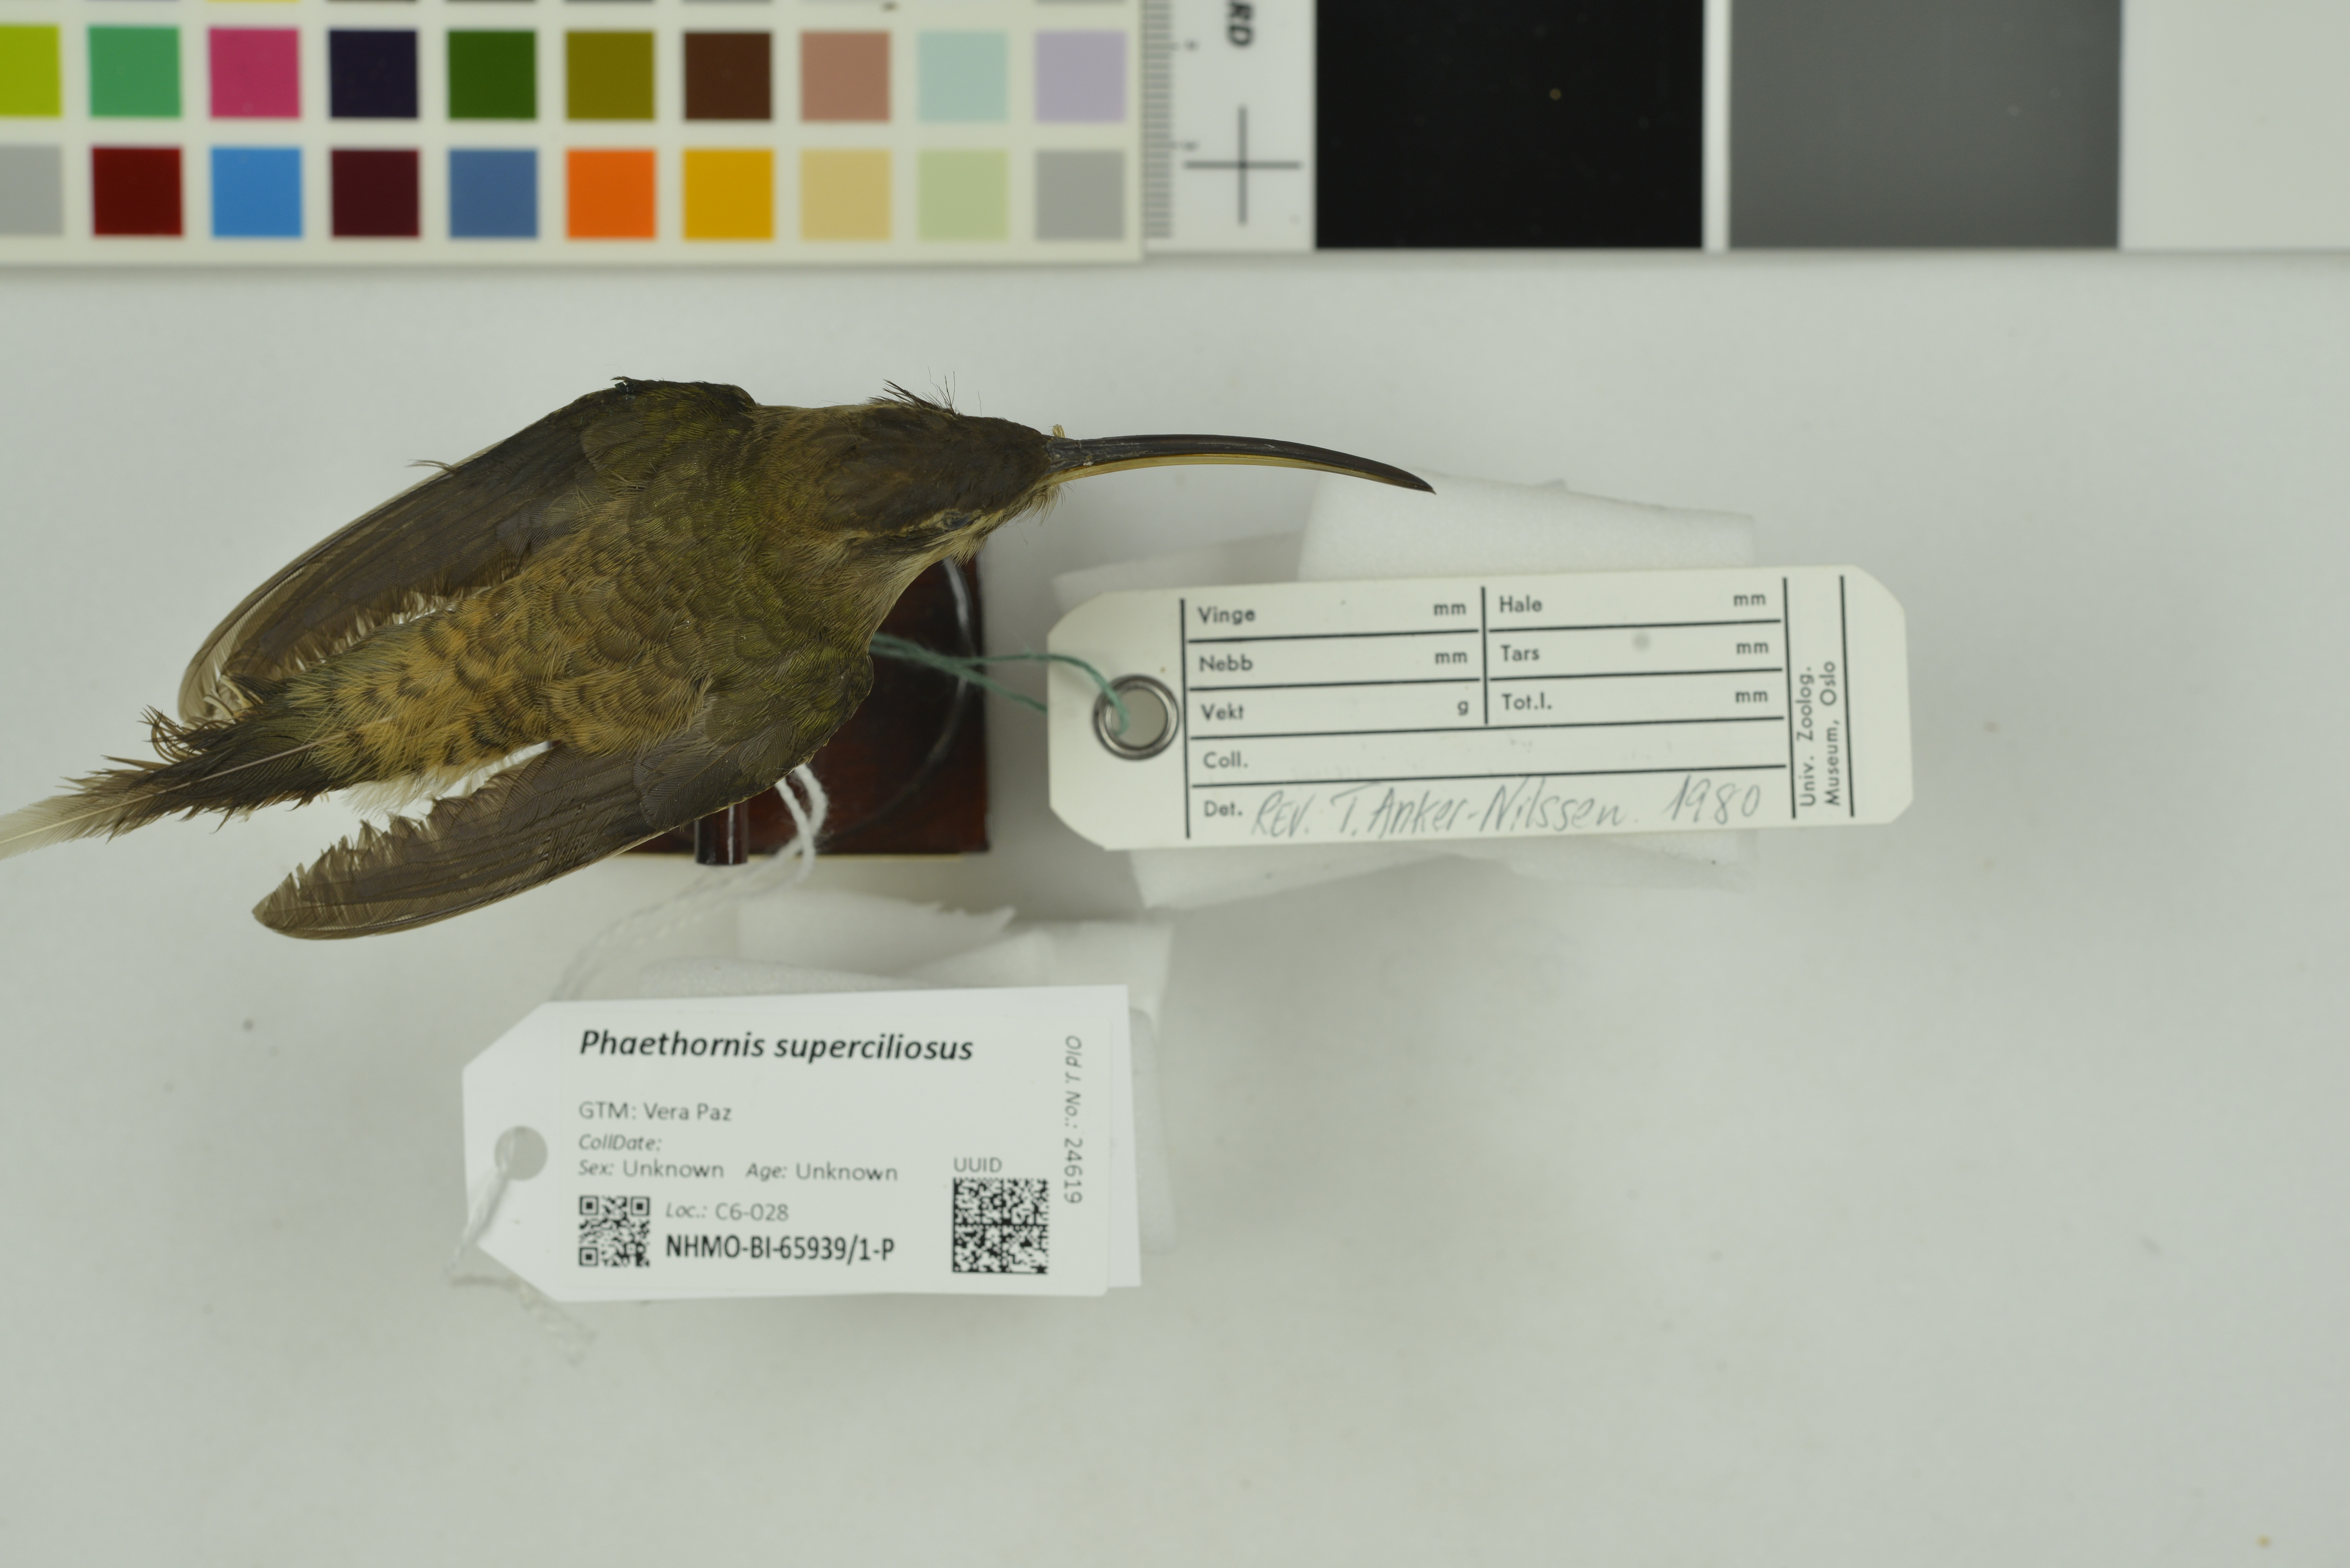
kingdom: Animalia
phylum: Chordata
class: Aves
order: Apodiformes
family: Trochilidae
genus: Phaethornis
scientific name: Phaethornis superciliosus
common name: Long-tailed hermit
